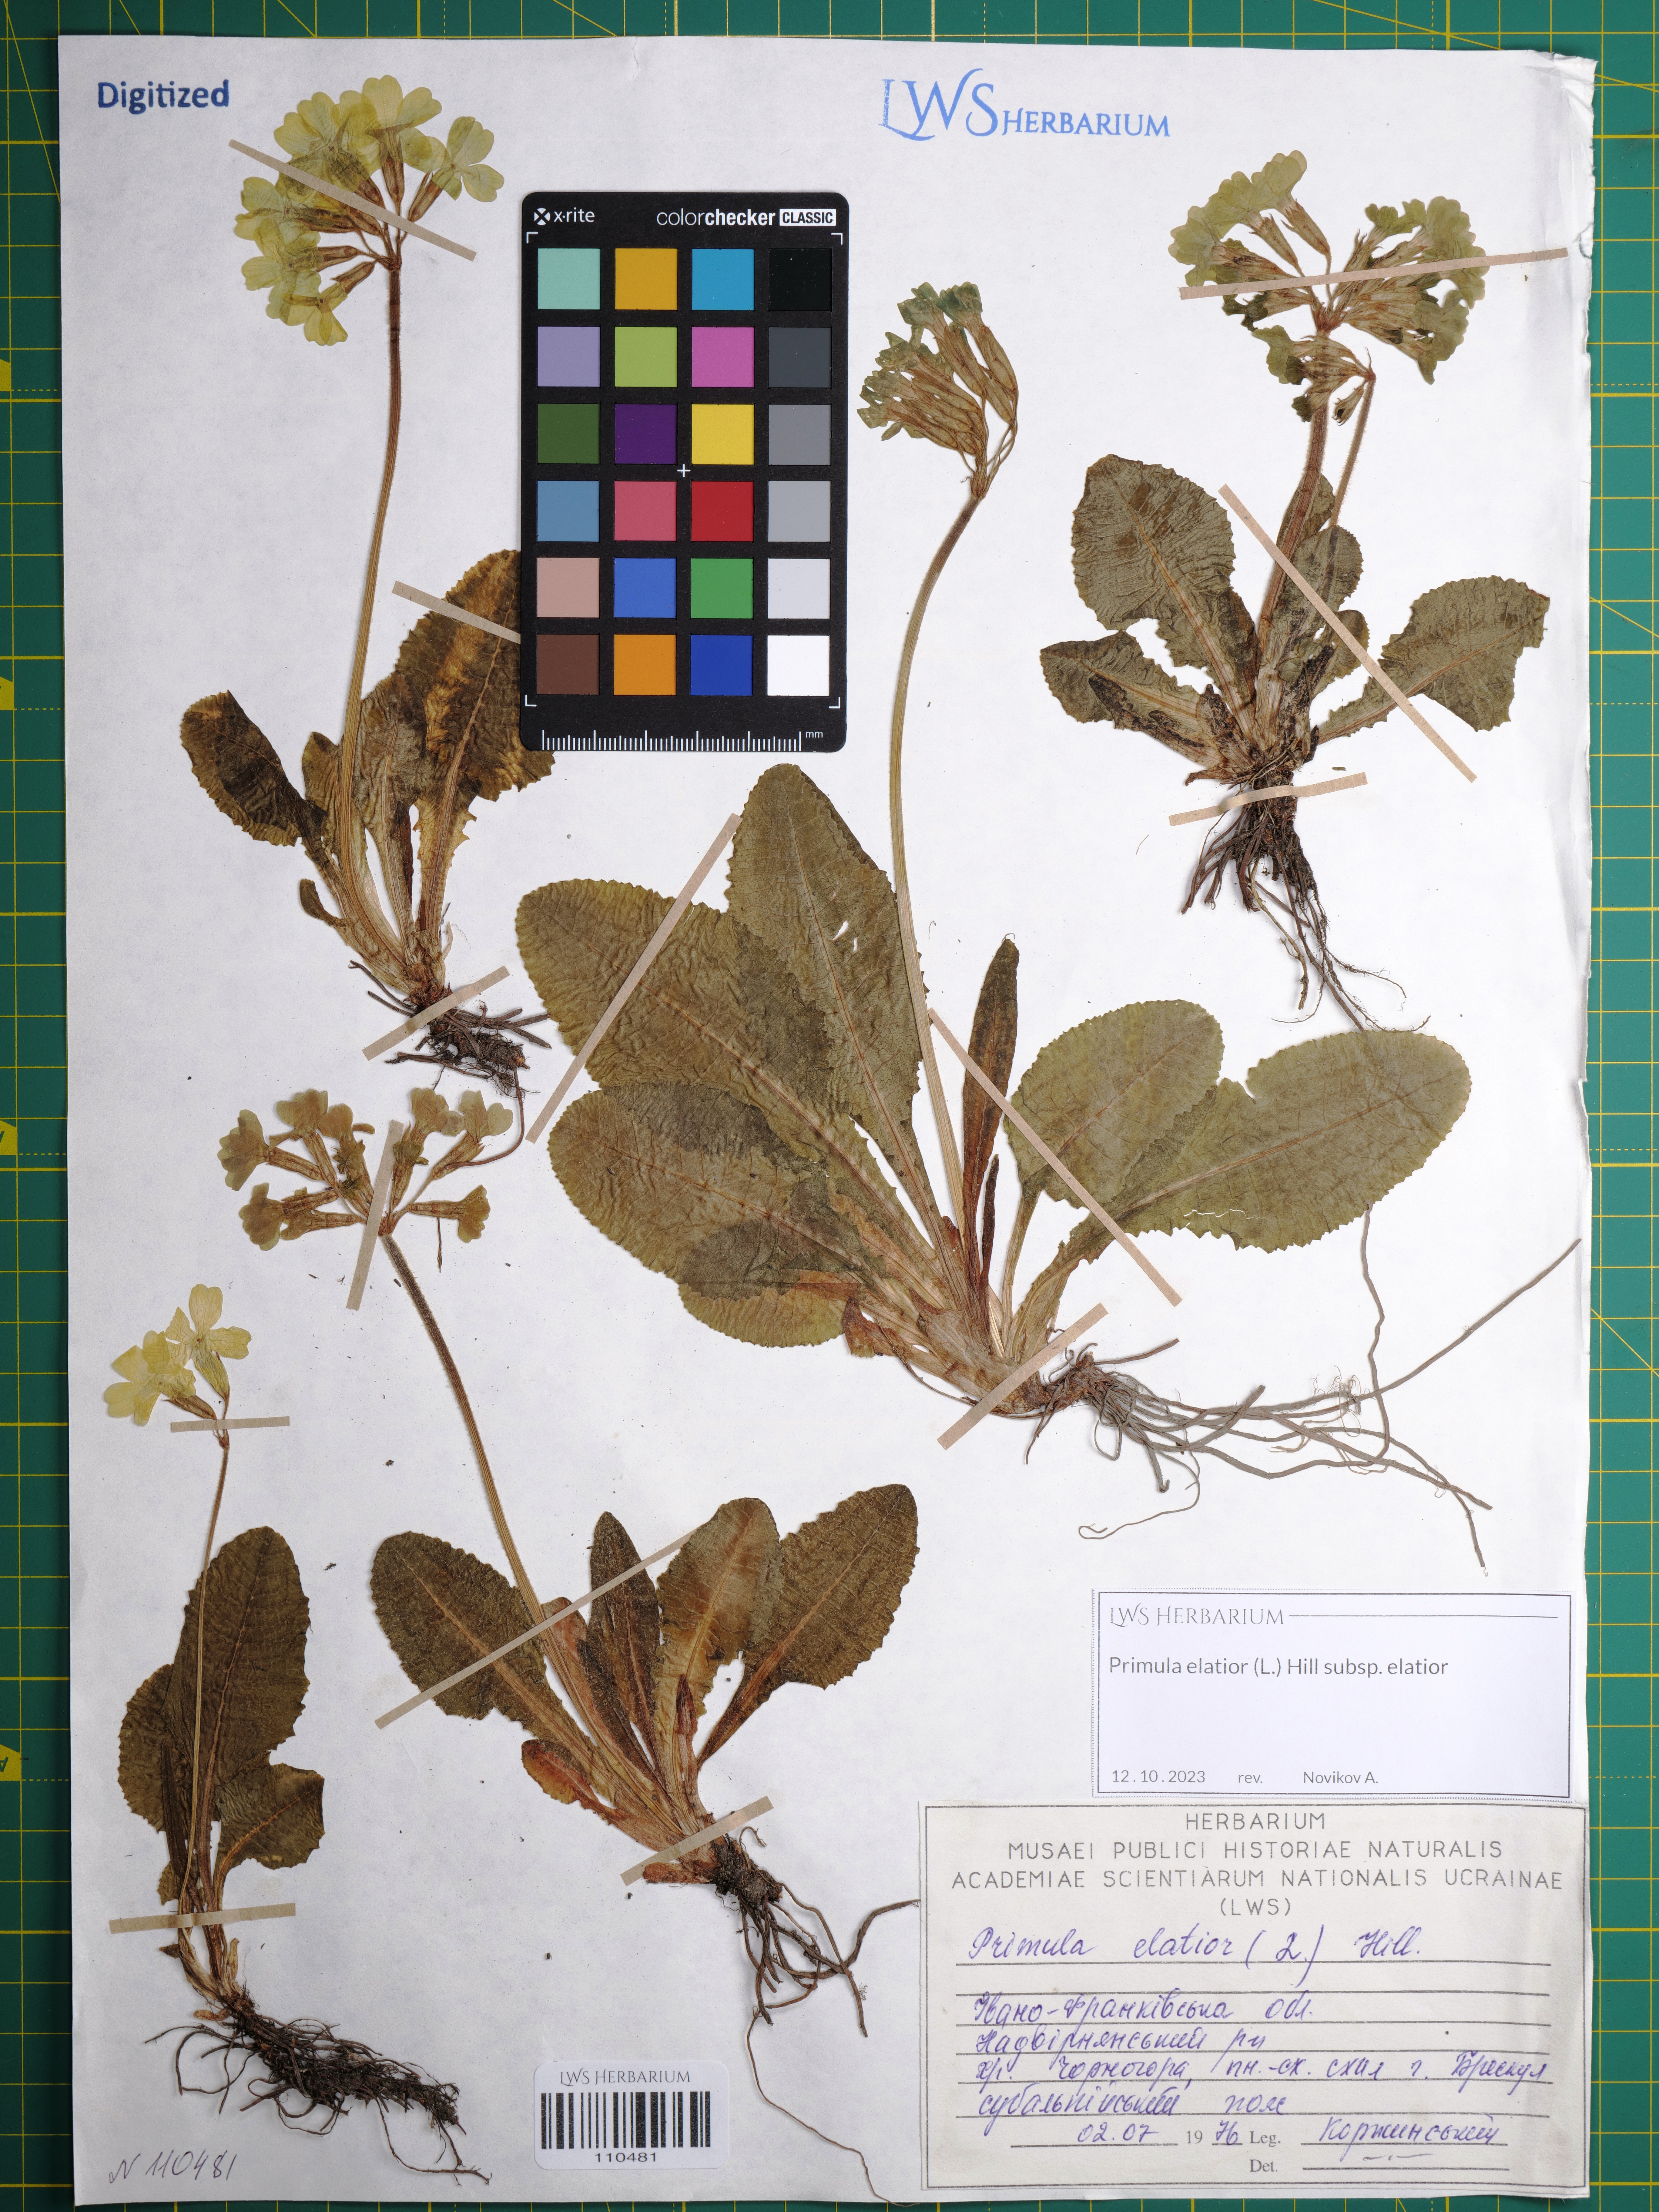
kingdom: Plantae
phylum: Tracheophyta
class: Magnoliopsida
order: Ericales
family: Primulaceae
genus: Primula
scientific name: Primula elatior
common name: Oxlip
